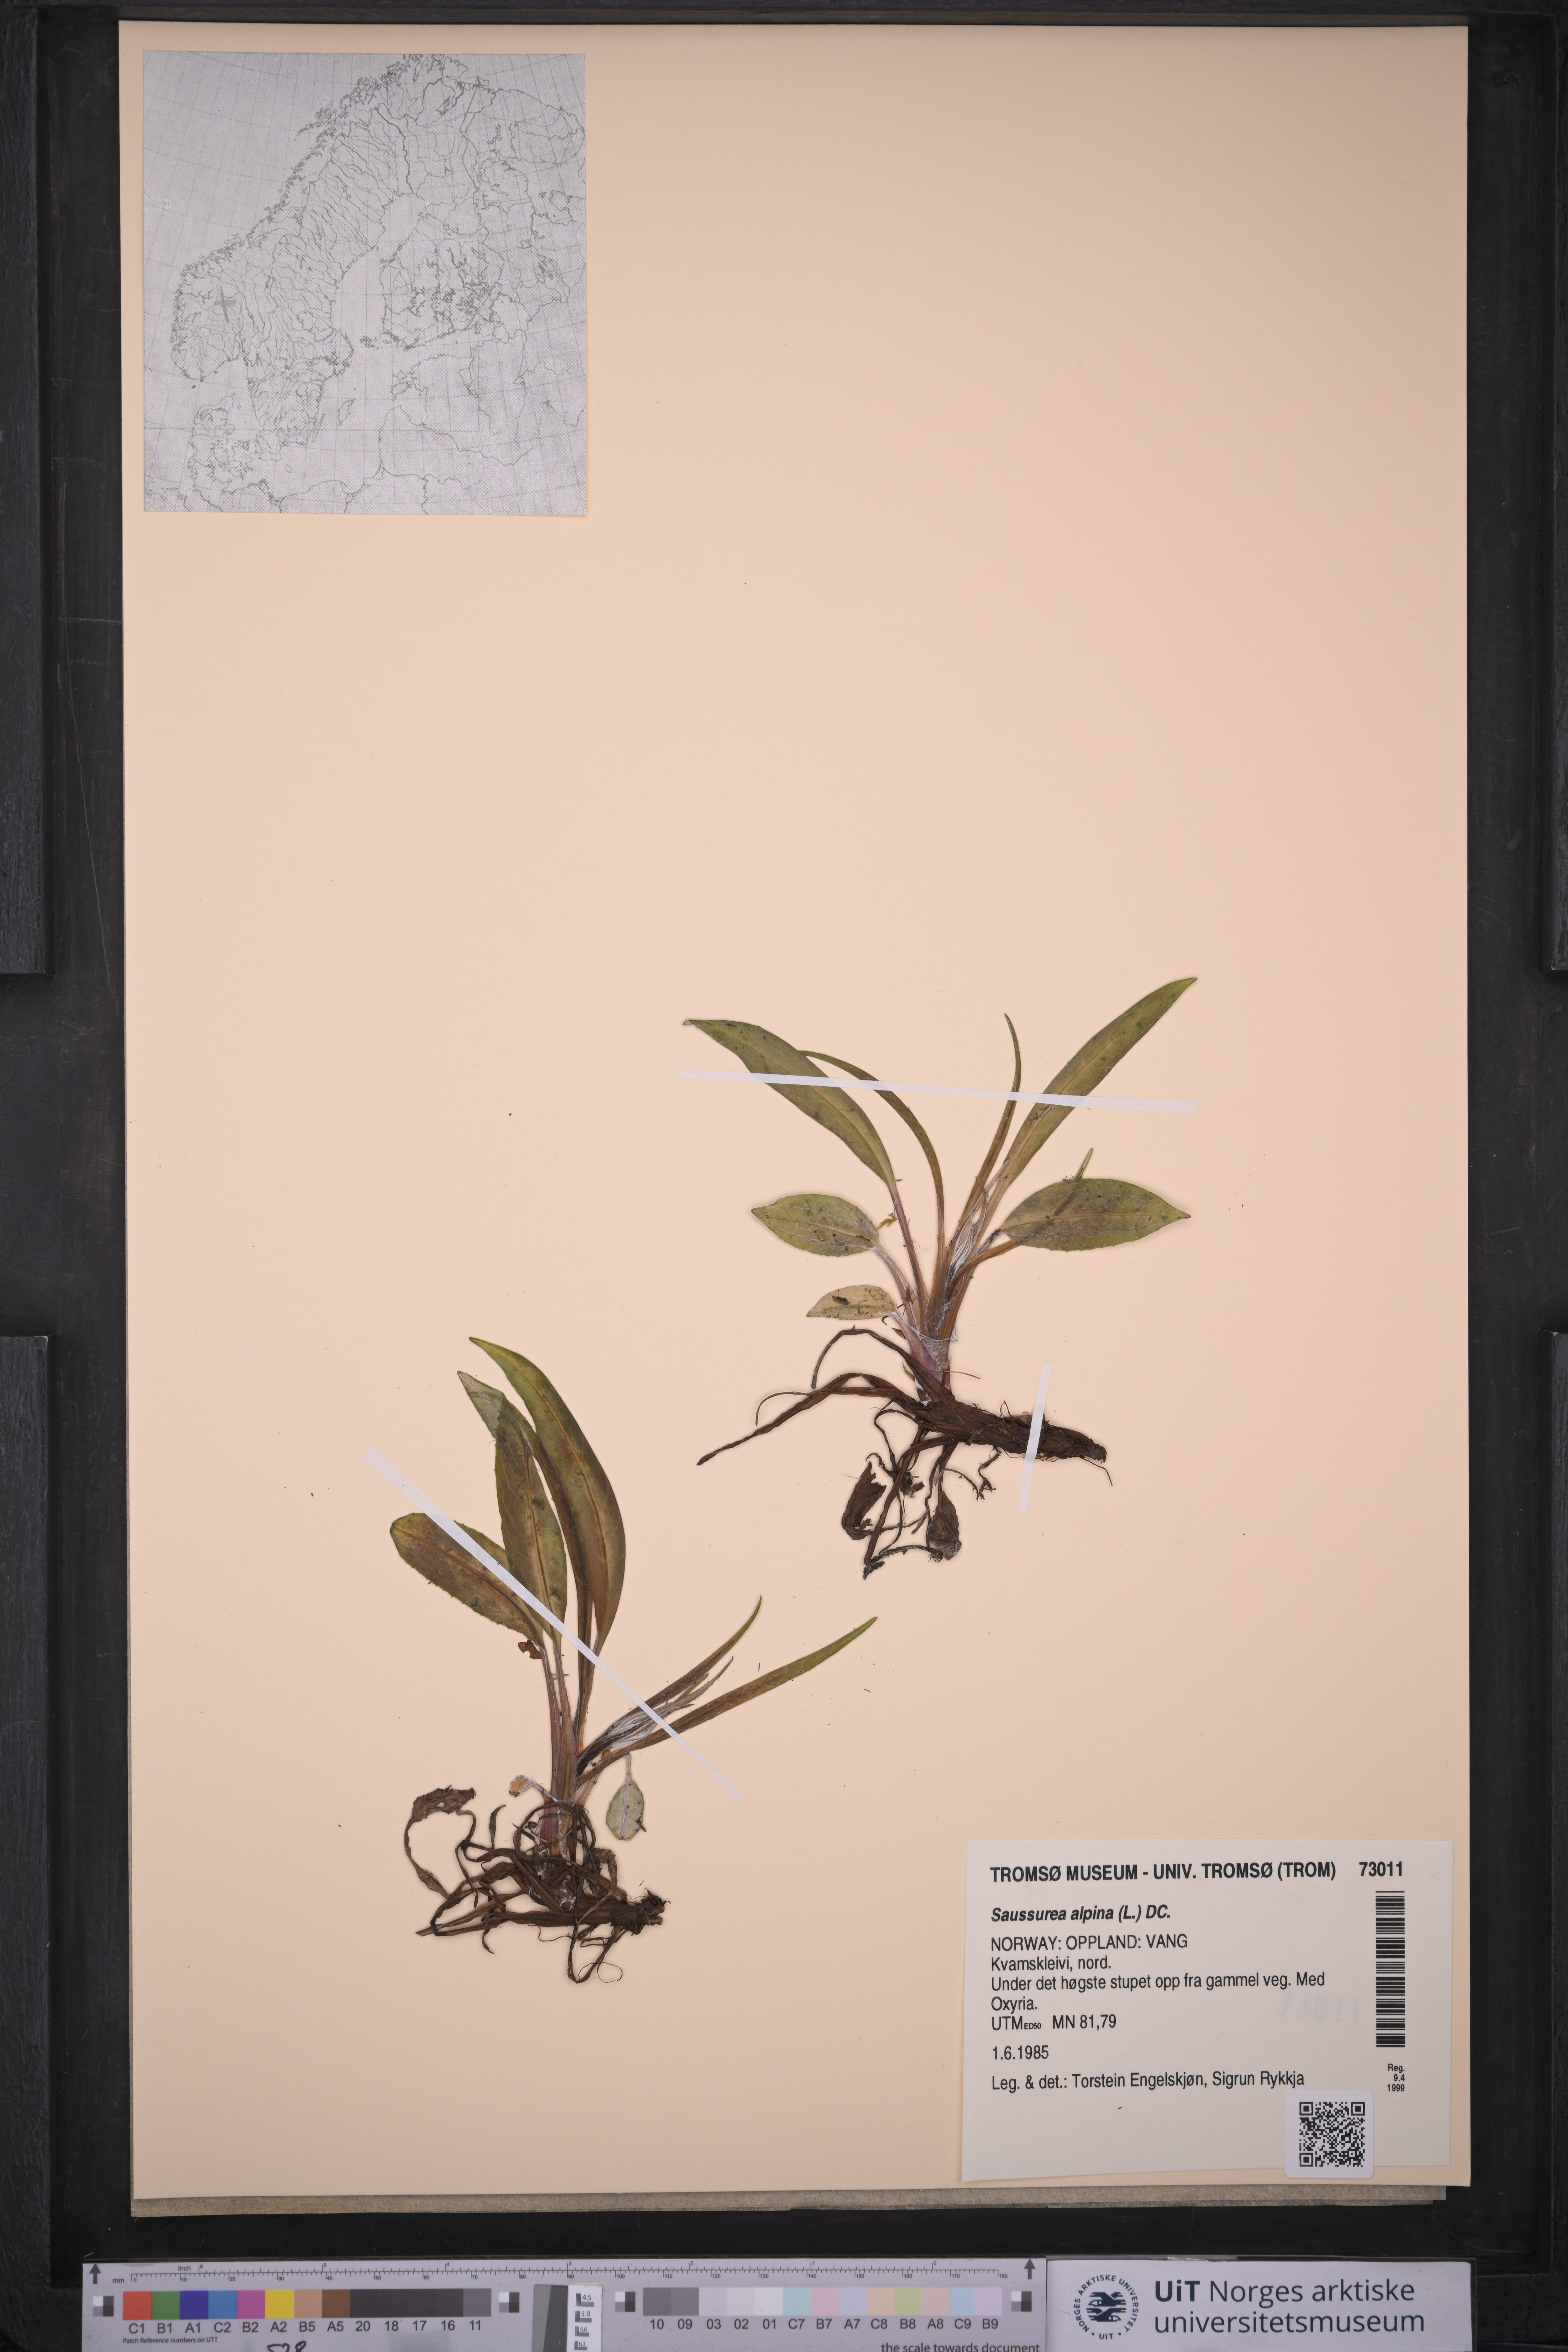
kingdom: Plantae
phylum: Tracheophyta
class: Magnoliopsida
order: Asterales
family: Asteraceae
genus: Saussurea
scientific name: Saussurea alpina
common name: Alpine saw-wort
